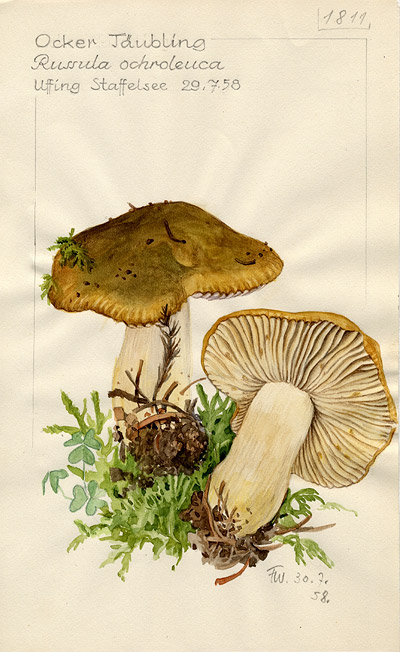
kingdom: Fungi
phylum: Basidiomycota
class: Agaricomycetes
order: Russulales
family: Russulaceae
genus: Russula
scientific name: Russula ochroleuca
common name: Common yellow russula
